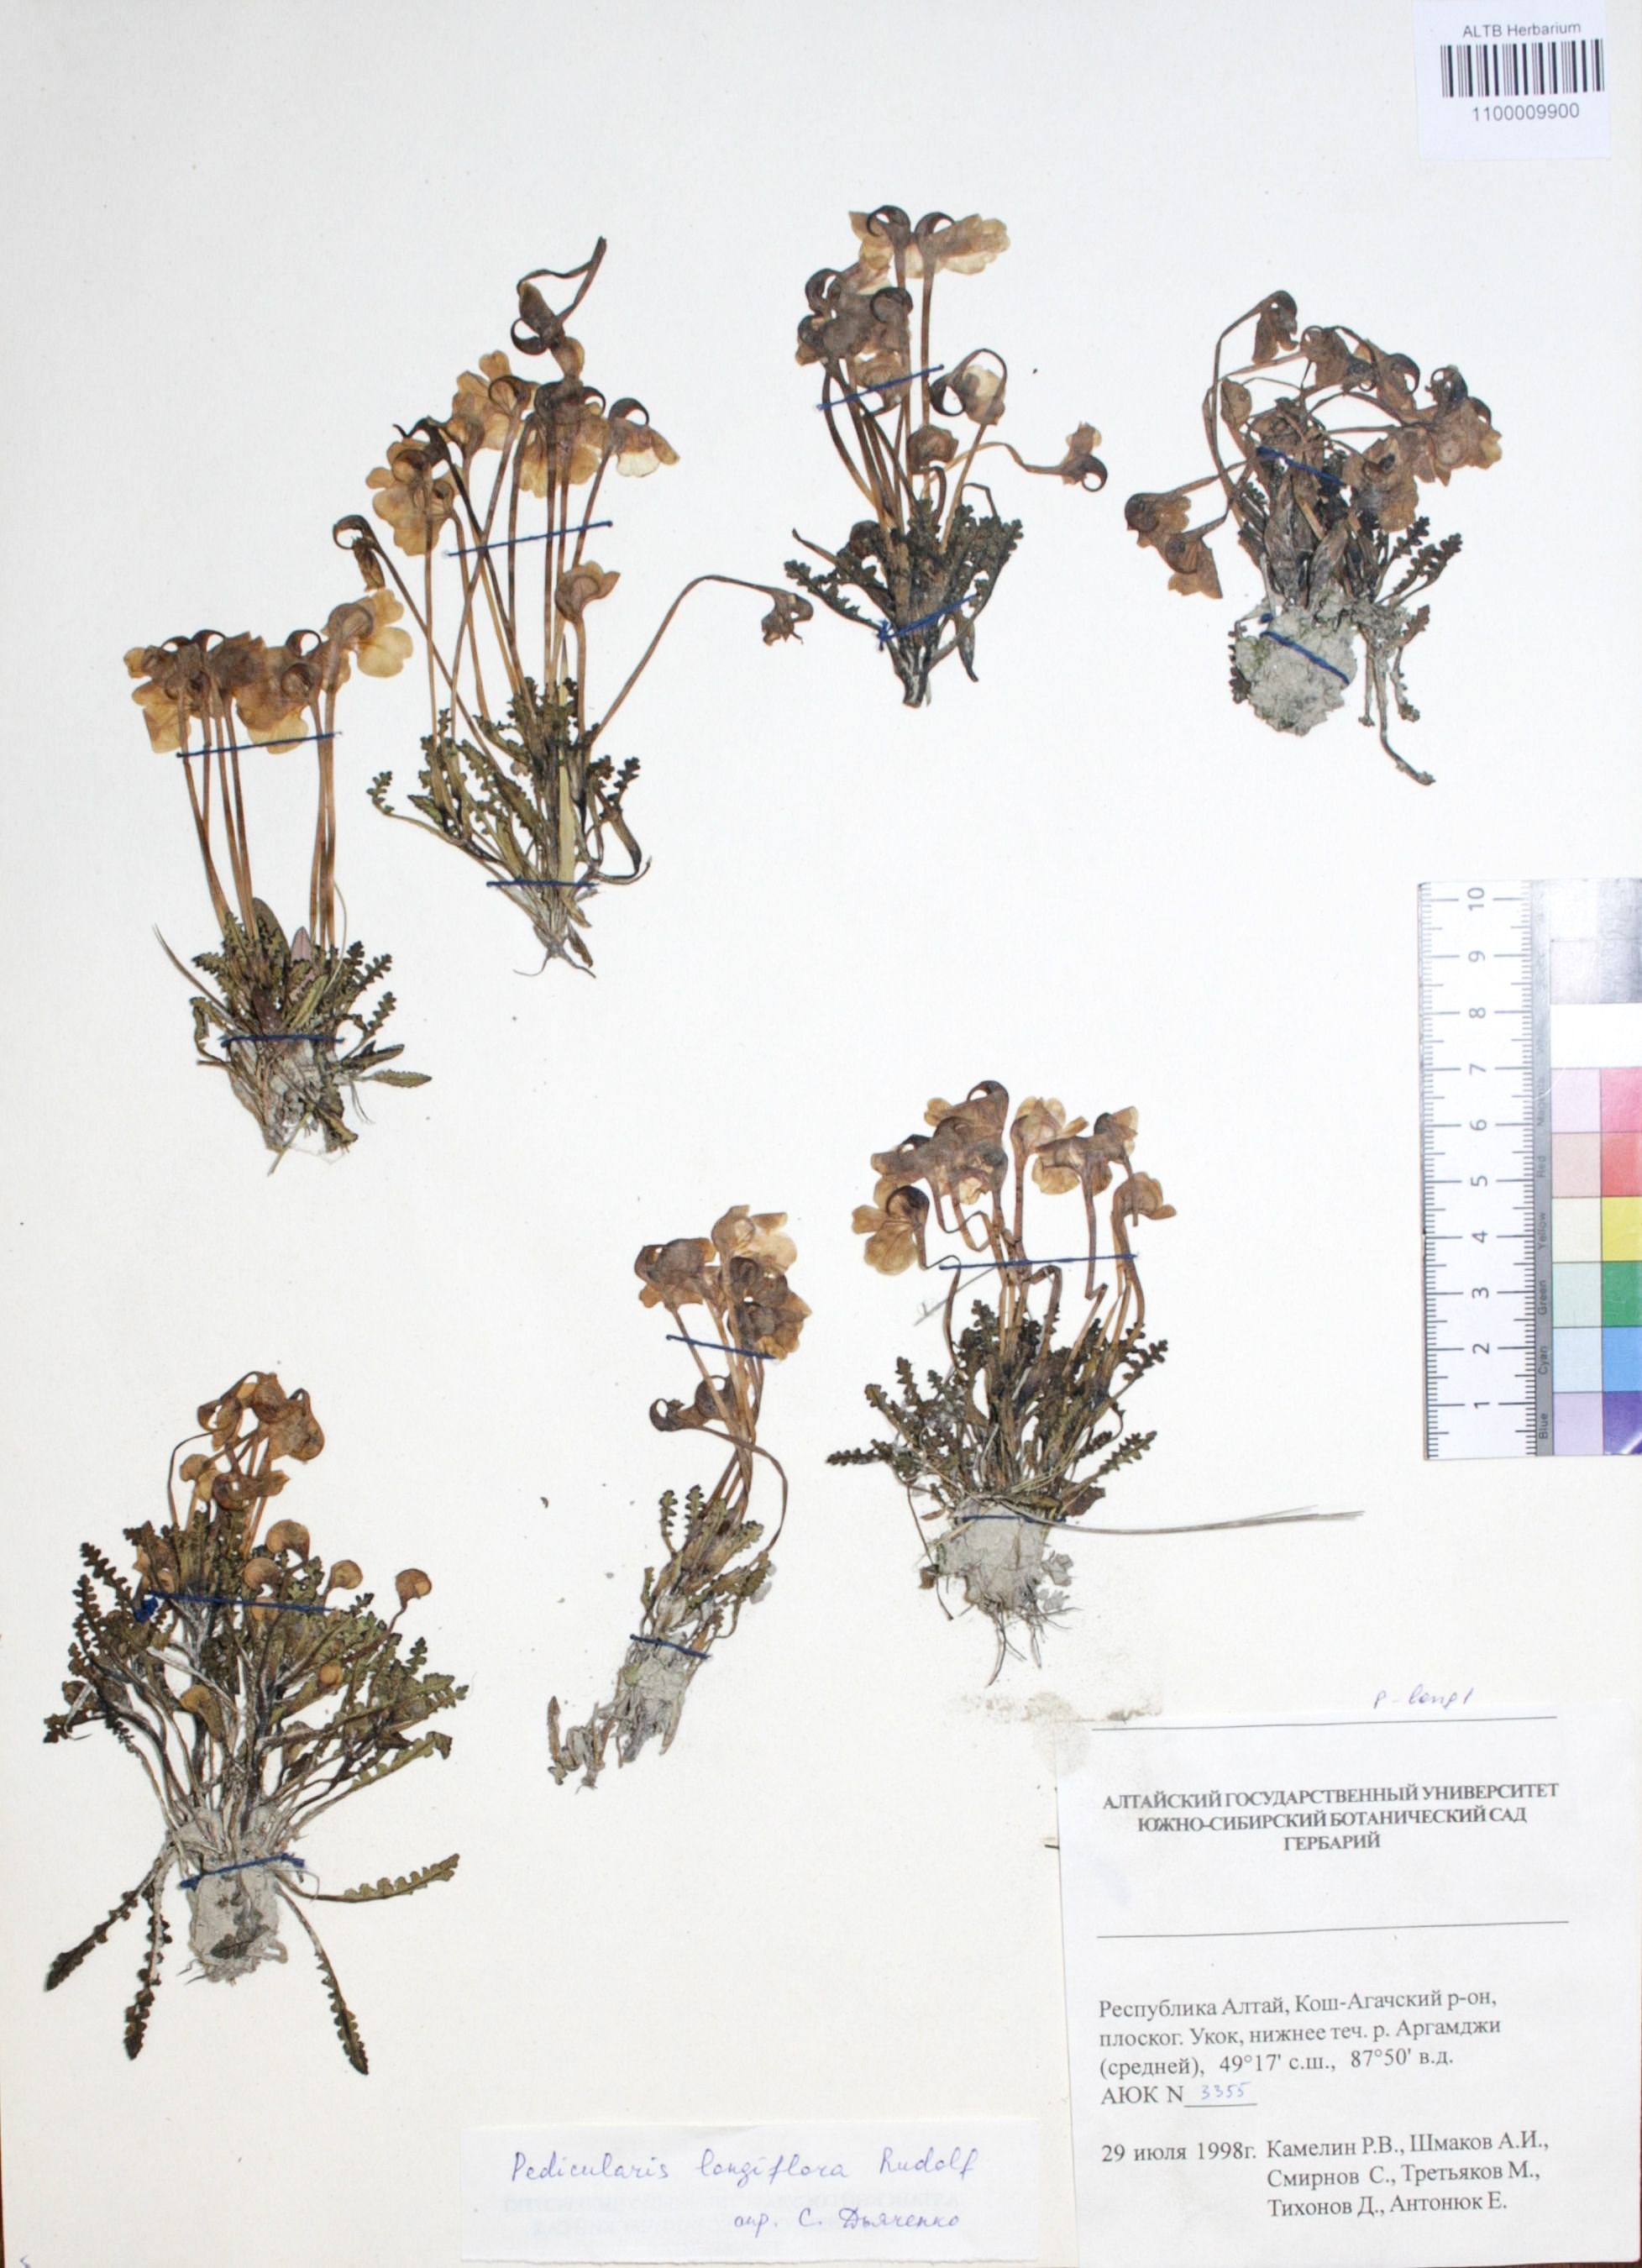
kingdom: Plantae
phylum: Tracheophyta
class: Magnoliopsida
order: Lamiales
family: Orobanchaceae
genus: Pedicularis
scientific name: Pedicularis longiflora
